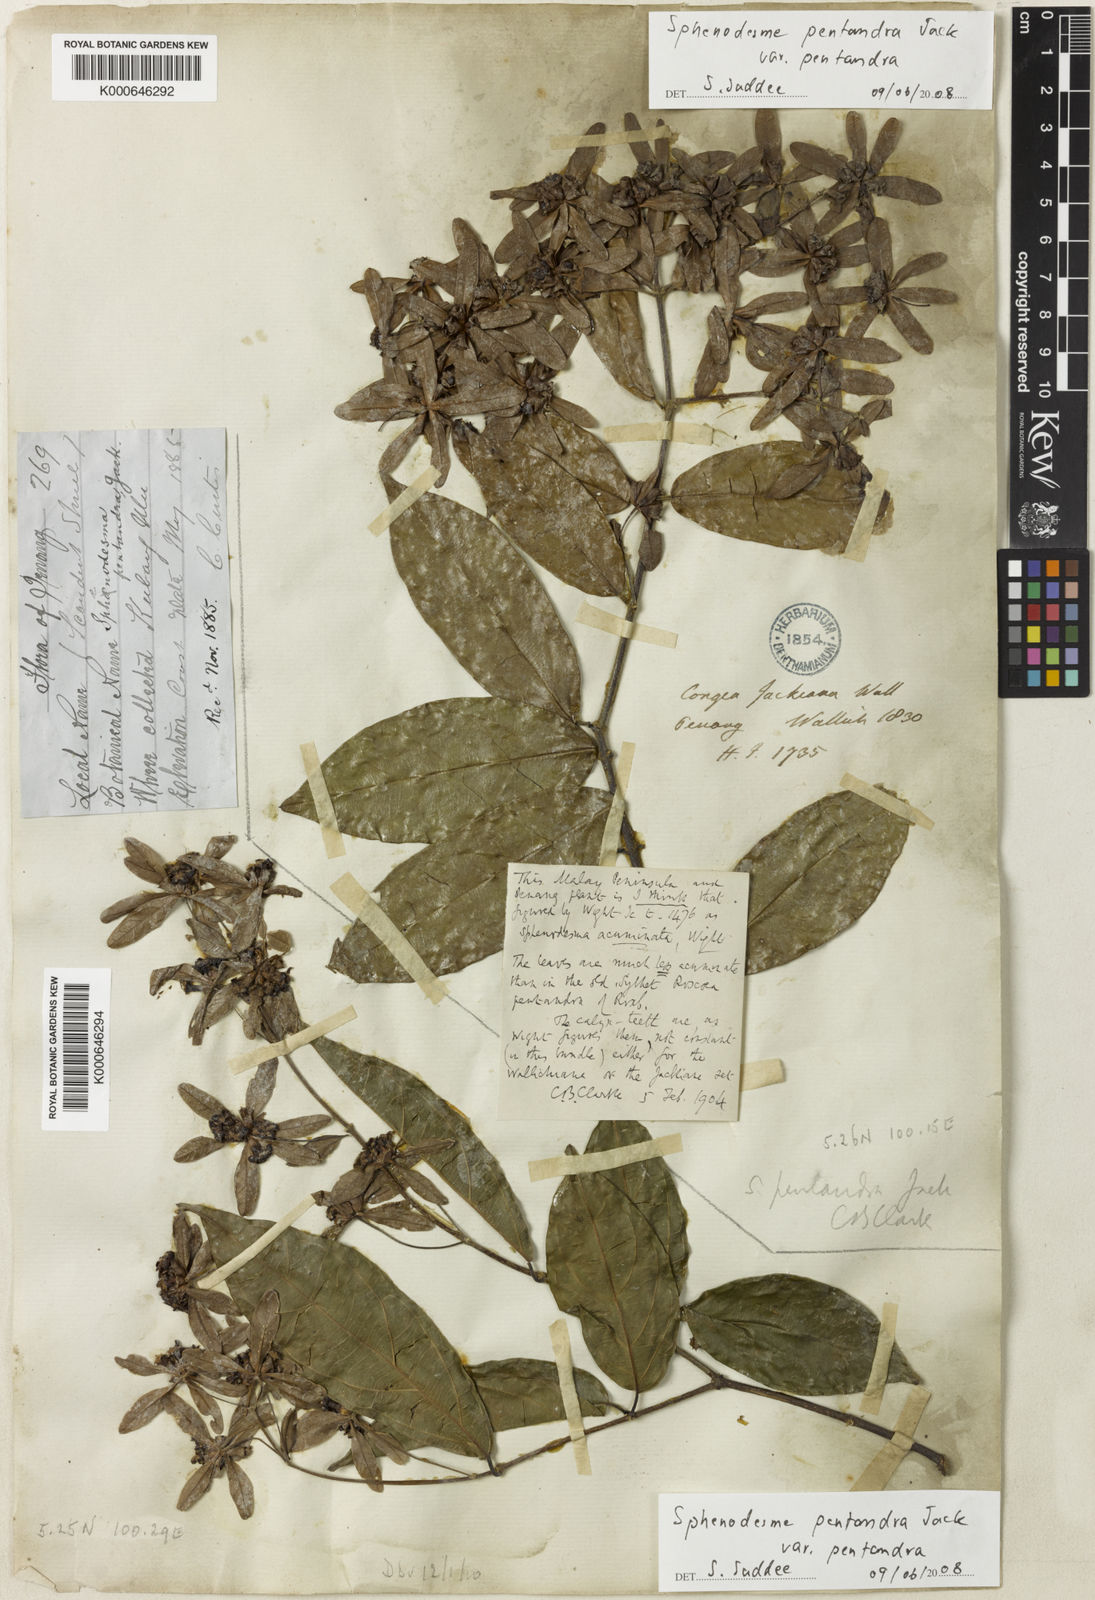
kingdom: Plantae
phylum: Tracheophyta
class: Magnoliopsida
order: Lamiales
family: Lamiaceae
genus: Sphenodesme
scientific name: Sphenodesme pentandra
